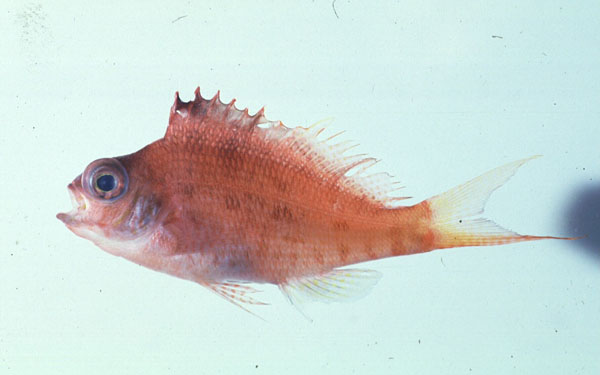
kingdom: Animalia
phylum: Chordata
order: Perciformes
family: Cirrhitidae
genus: Cyprinocirrhites
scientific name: Cyprinocirrhites polyactis
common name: Swallowtail hawkfish
